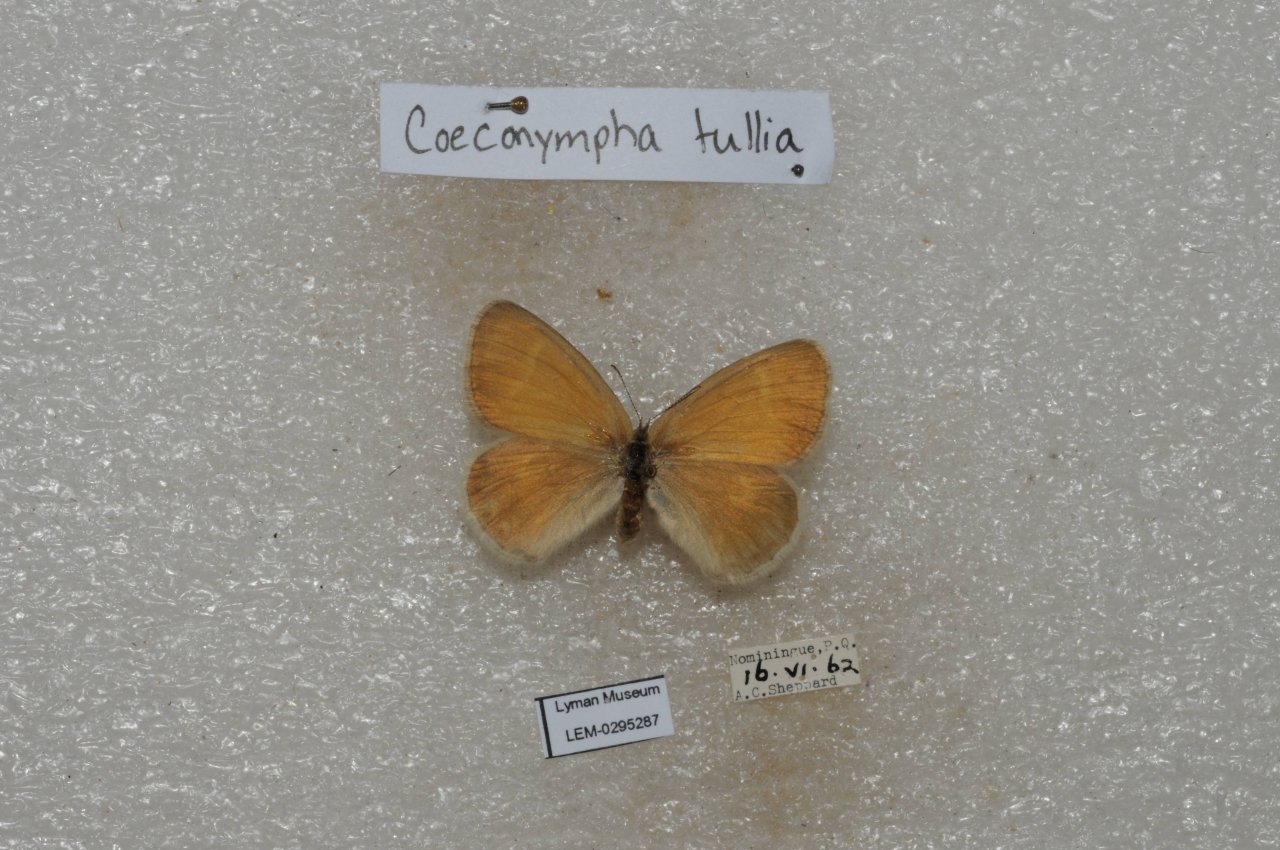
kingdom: Animalia
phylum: Arthropoda
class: Insecta
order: Lepidoptera
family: Nymphalidae
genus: Coenonympha
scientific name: Coenonympha tullia
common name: Large Heath
